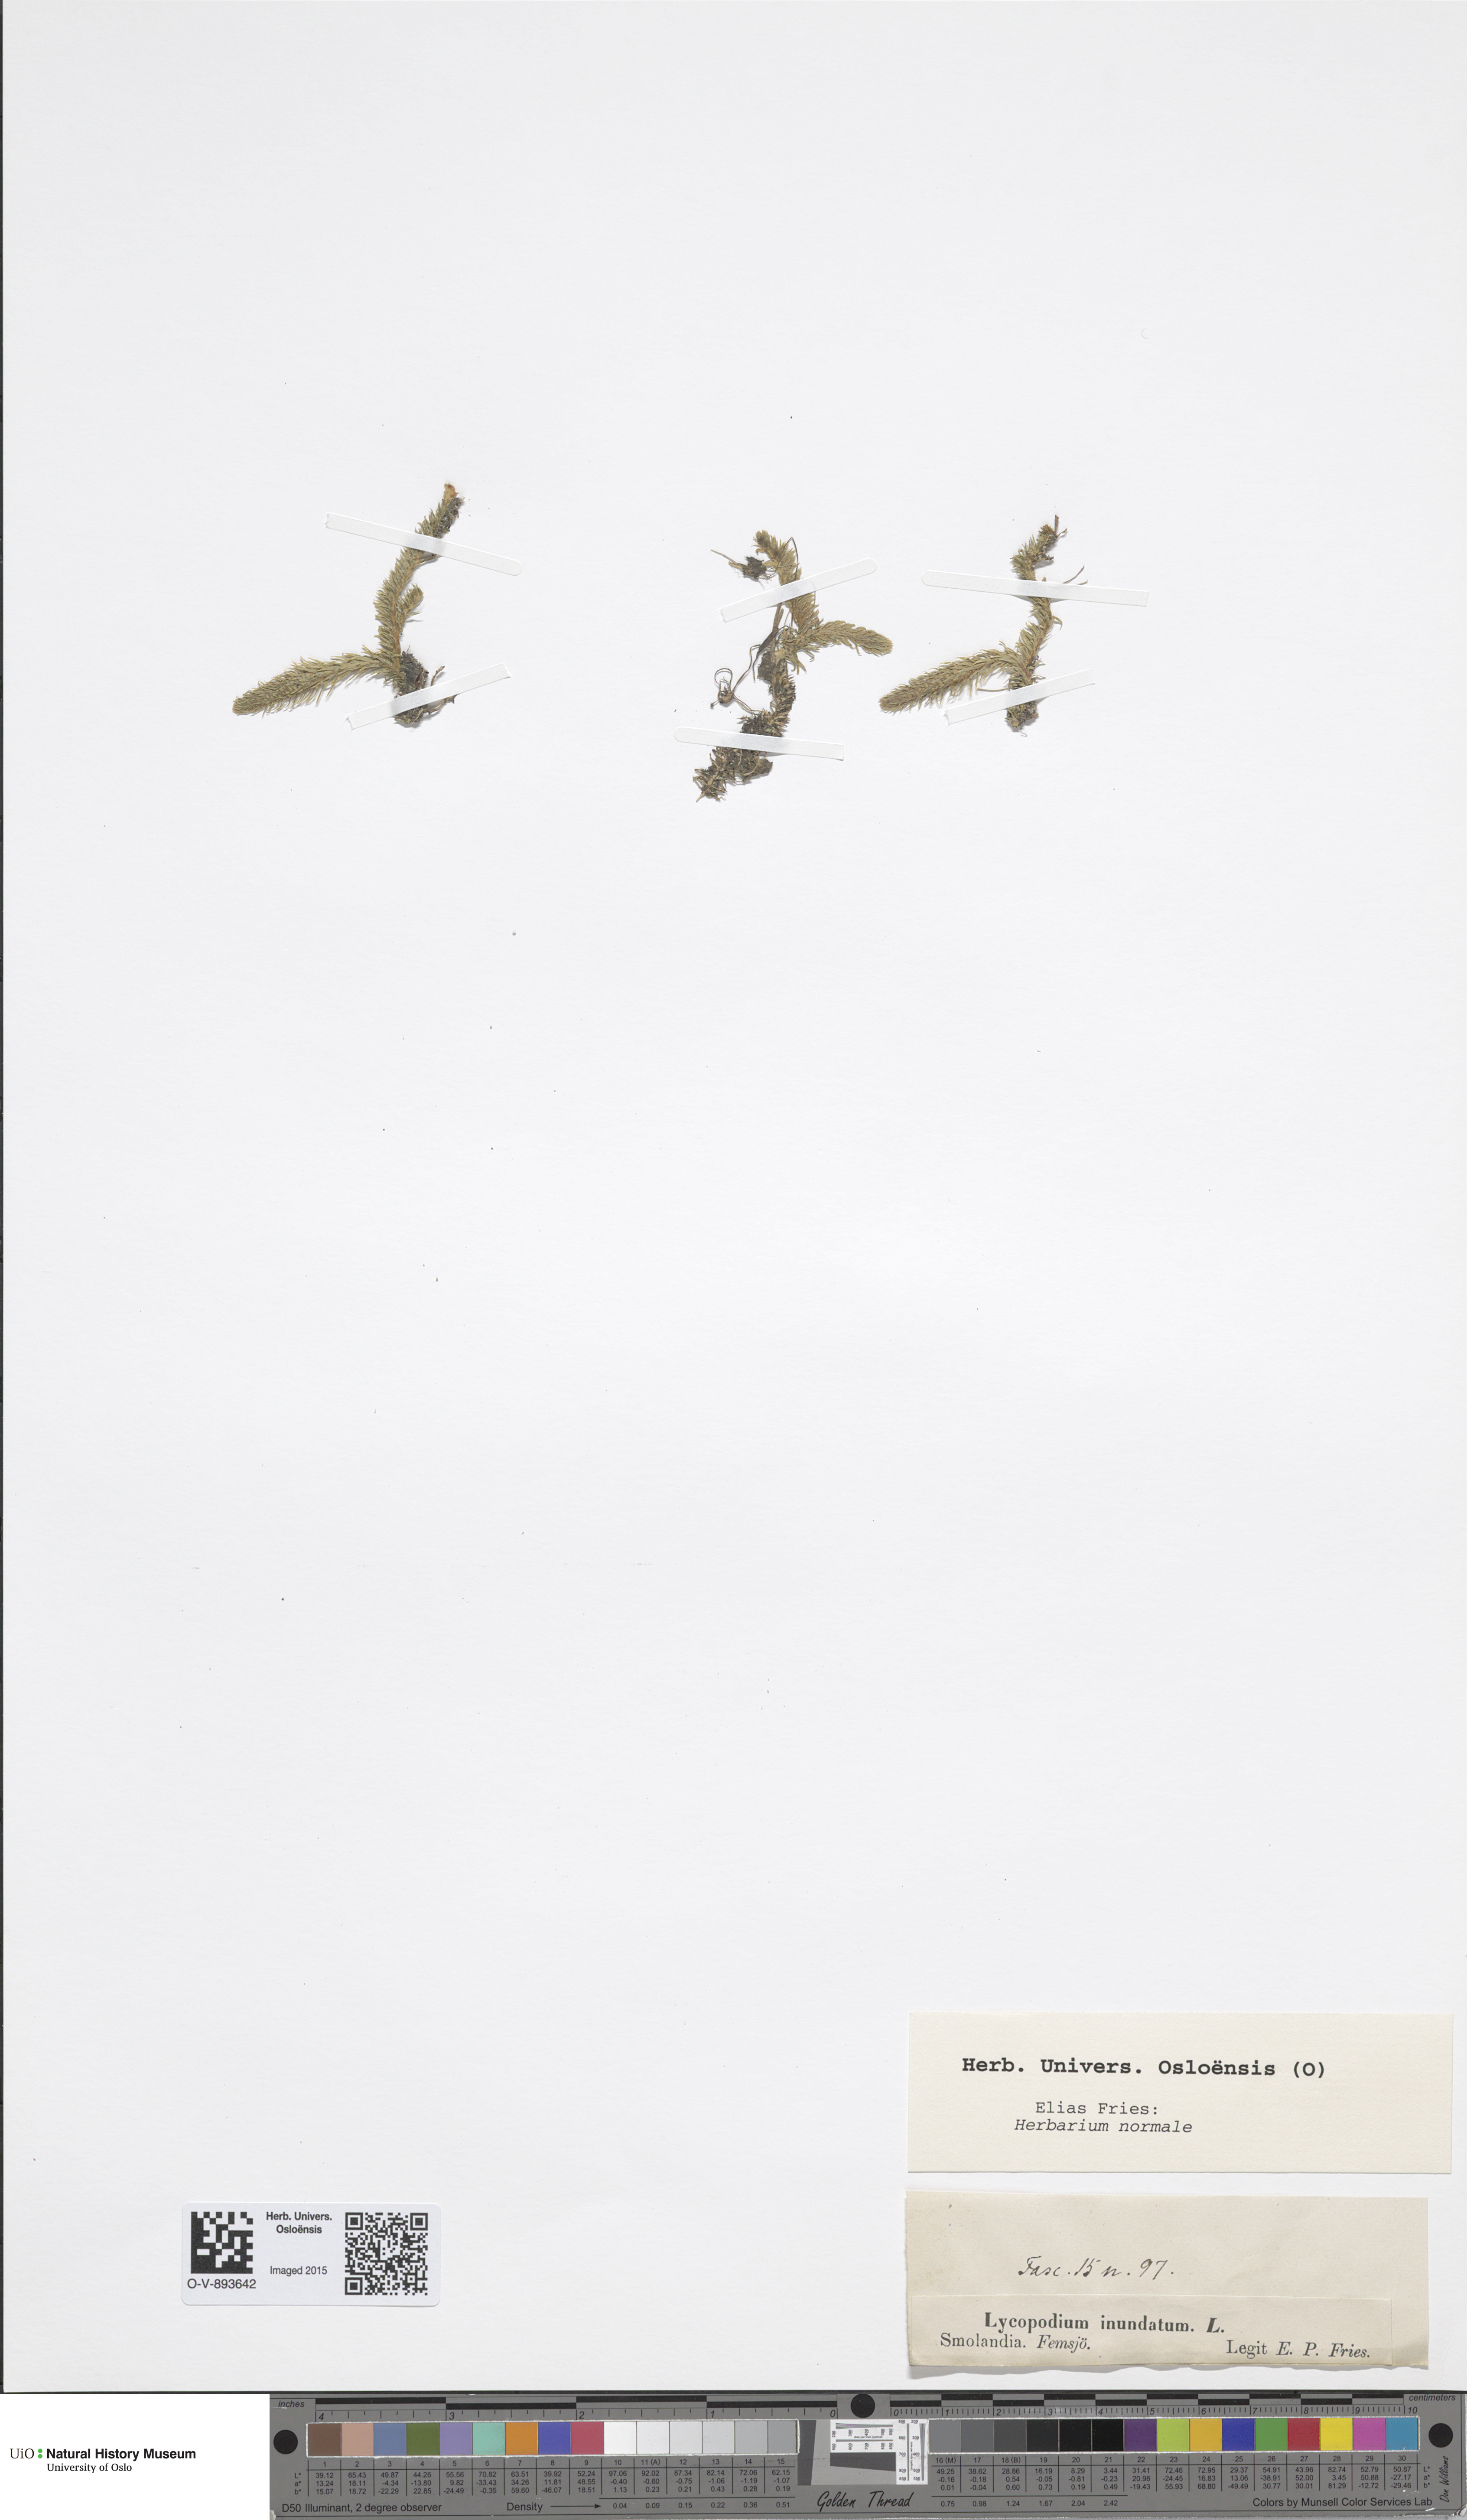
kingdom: Plantae
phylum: Tracheophyta
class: Lycopodiopsida
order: Lycopodiales
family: Lycopodiaceae
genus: Lycopodiella
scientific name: Lycopodiella inundata
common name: Marsh clubmoss
